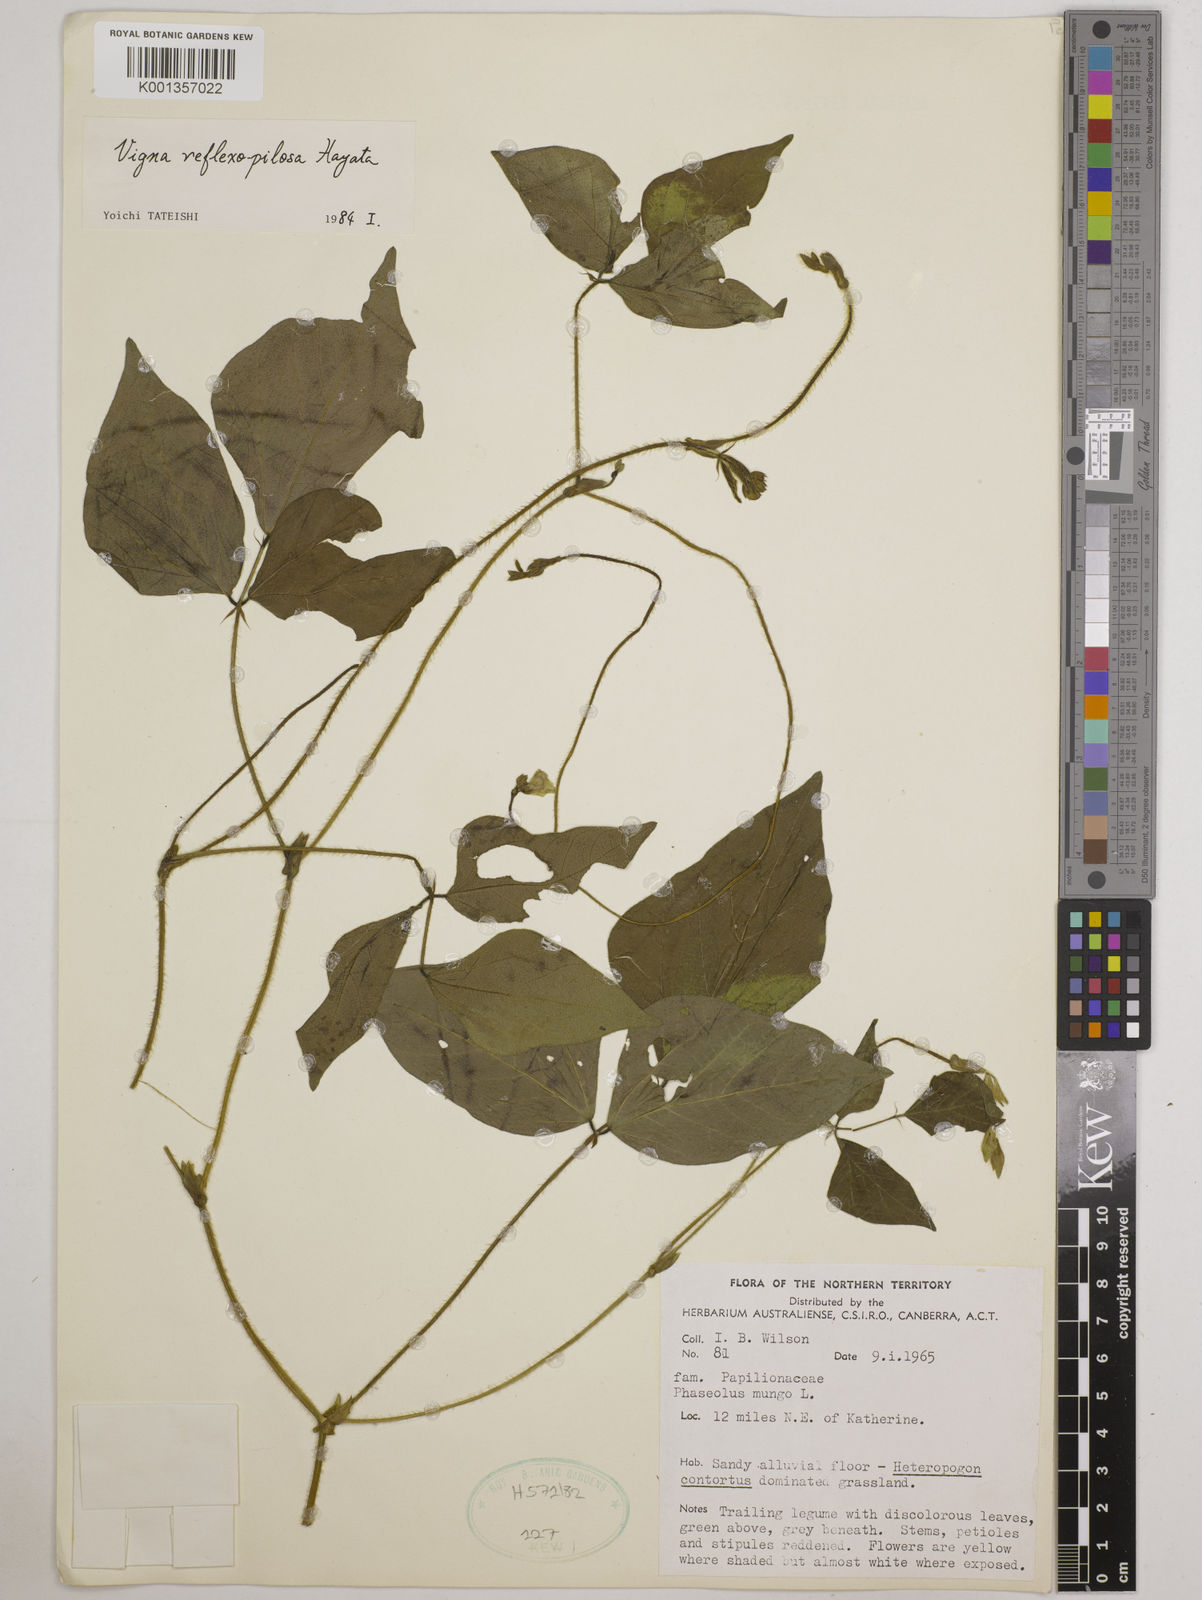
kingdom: Plantae
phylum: Tracheophyta
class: Magnoliopsida
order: Fabales
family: Fabaceae
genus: Vigna
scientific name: Vigna reflexopilosa
